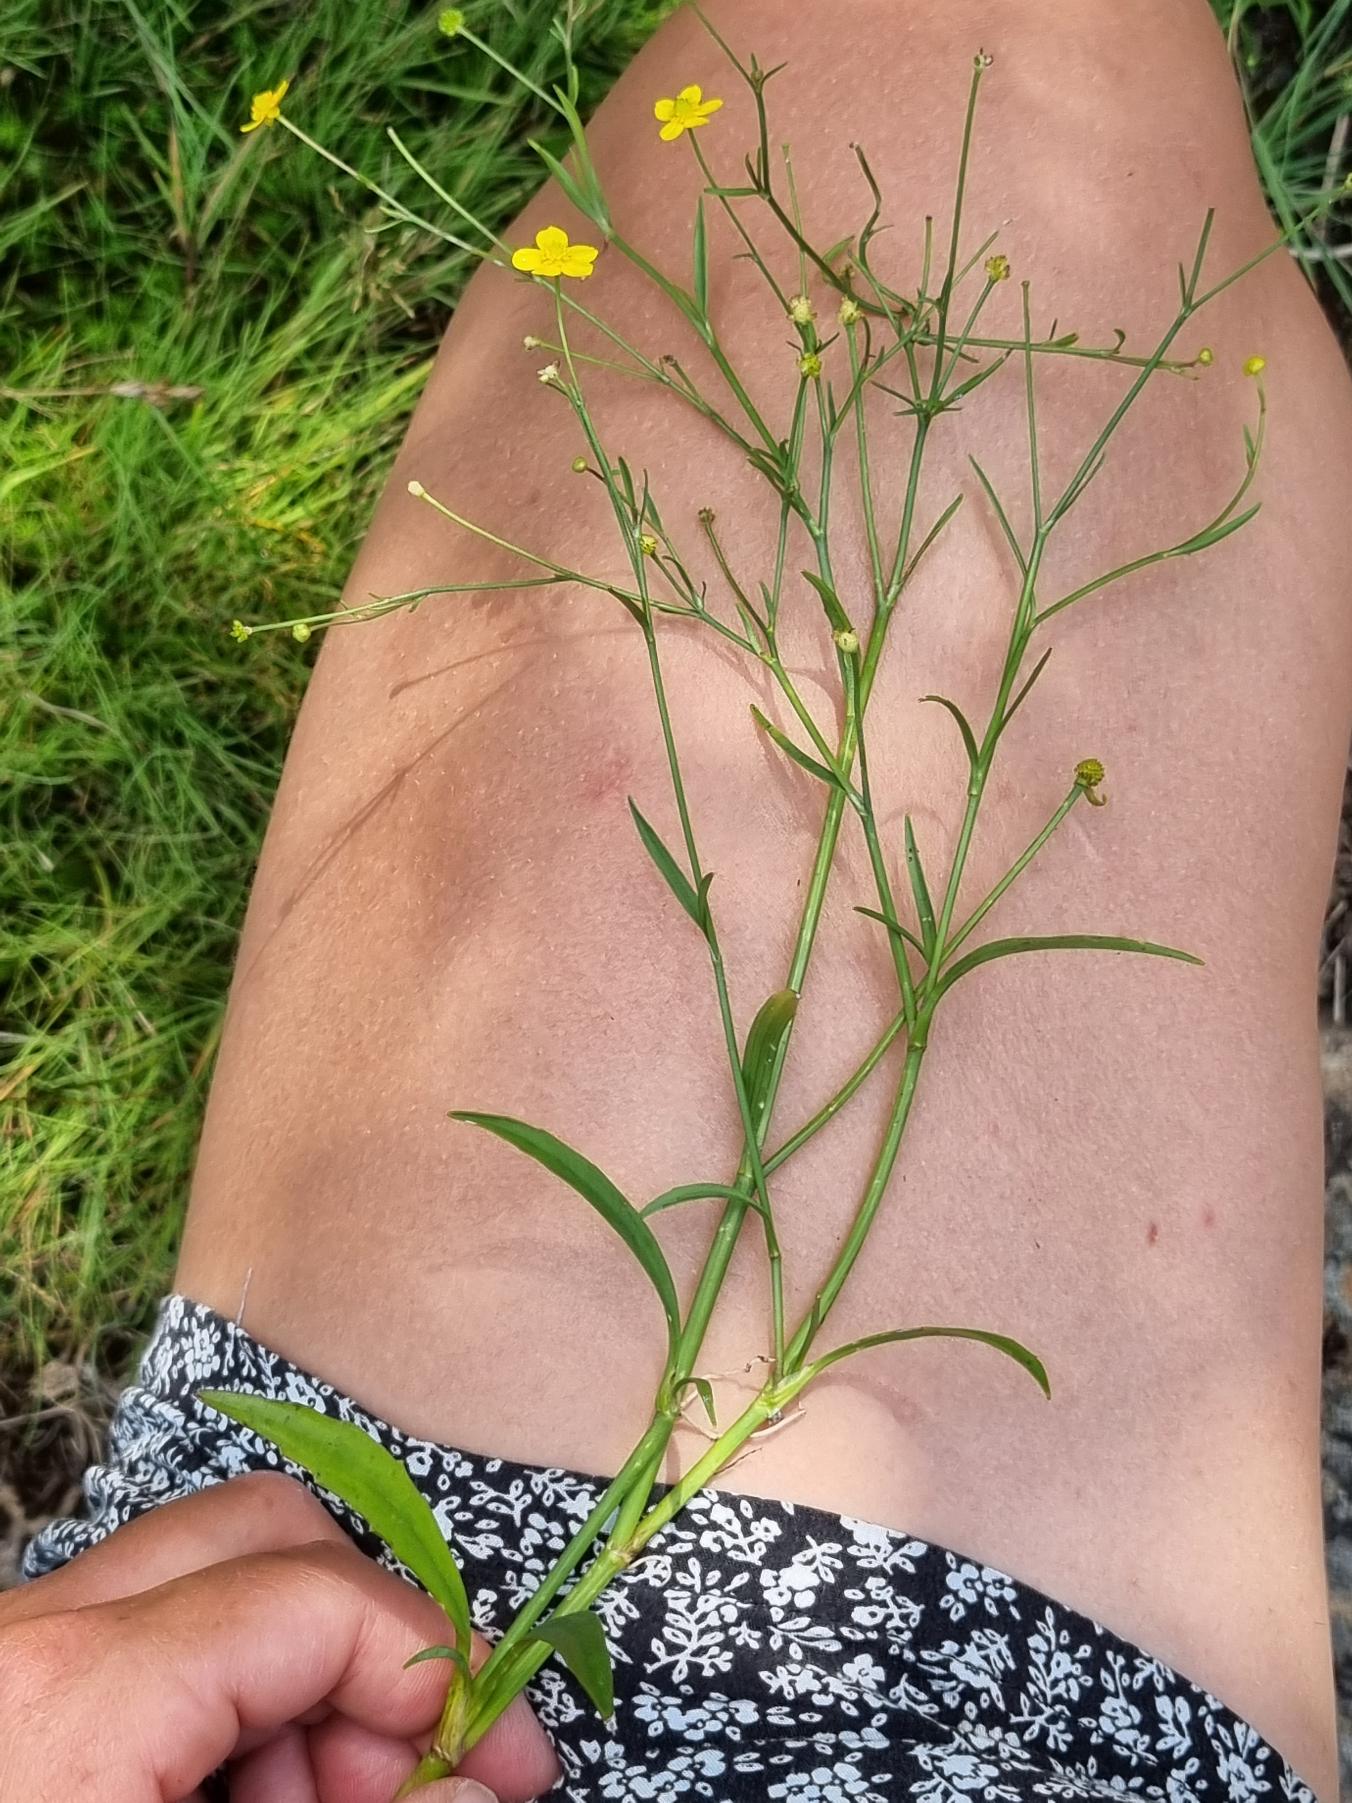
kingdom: Plantae
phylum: Tracheophyta
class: Magnoliopsida
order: Ranunculales
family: Ranunculaceae
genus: Ranunculus
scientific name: Ranunculus flammula
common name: Kær-ranunkel
